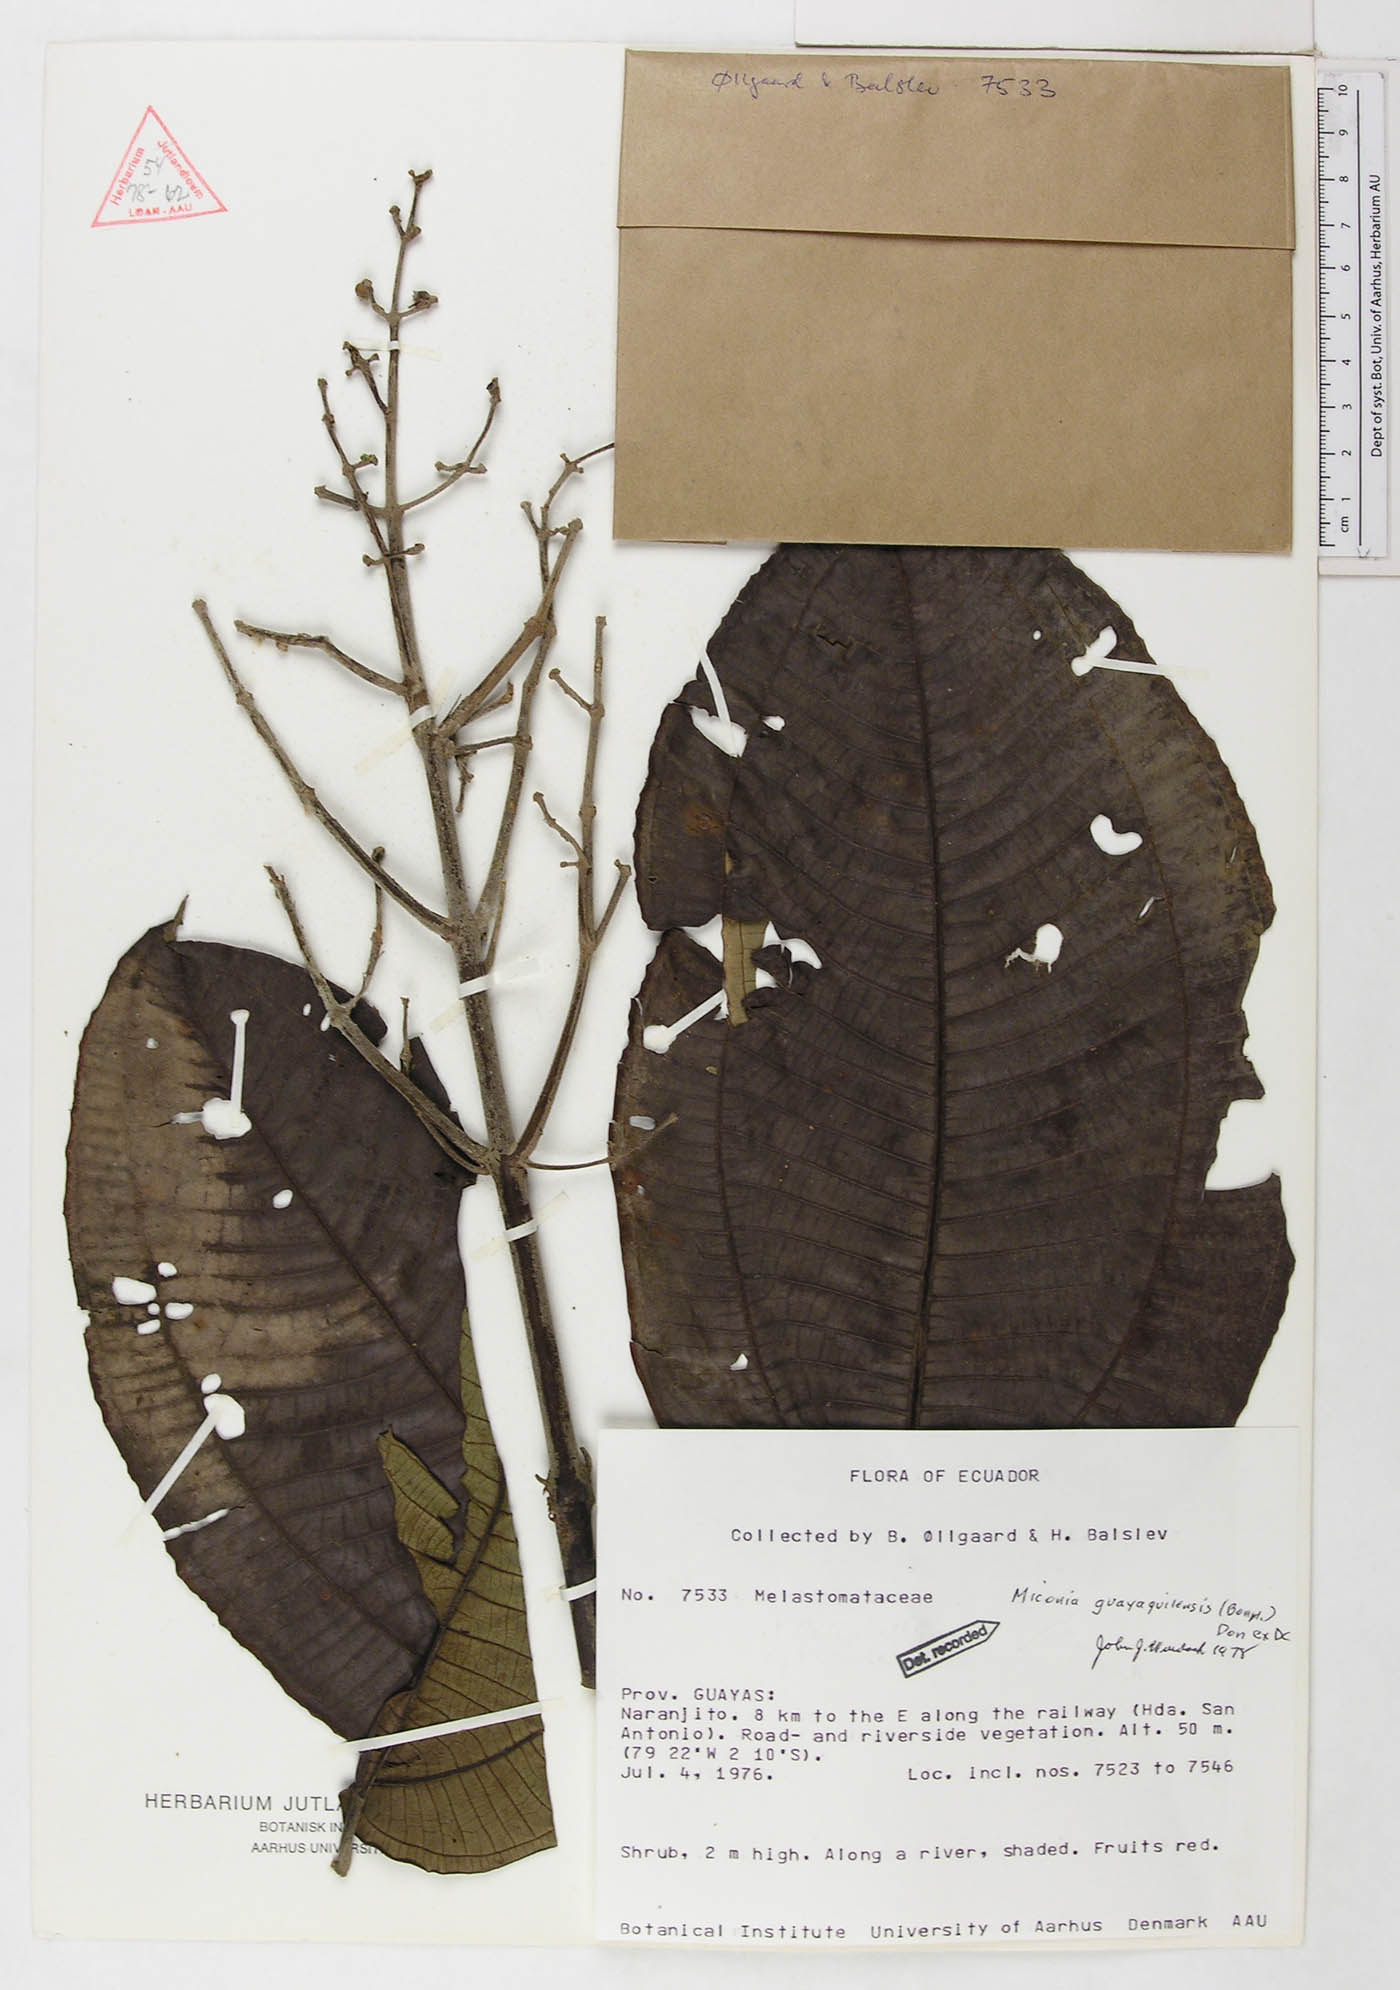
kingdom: Plantae
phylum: Tracheophyta
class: Magnoliopsida
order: Myrtales
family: Melastomataceae
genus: Miconia
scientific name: Miconia guayaquilensis
